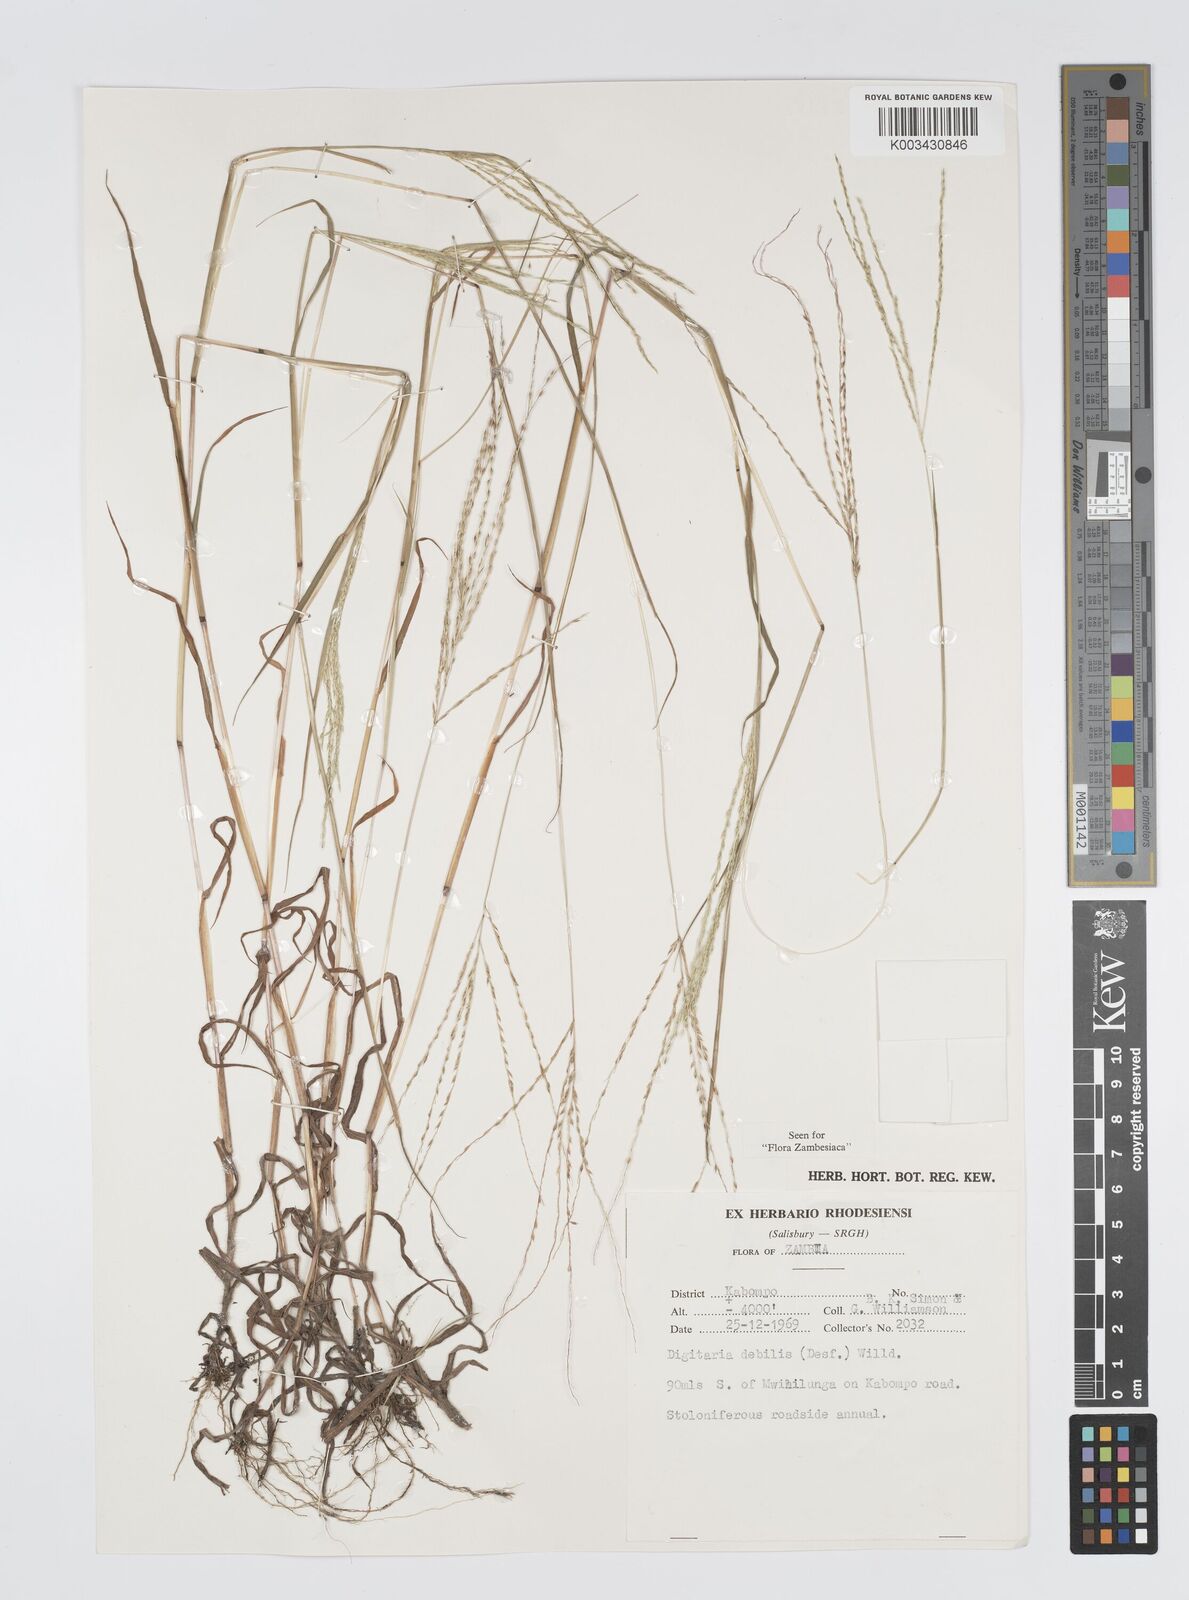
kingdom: Plantae
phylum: Tracheophyta
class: Liliopsida
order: Poales
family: Poaceae
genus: Digitaria
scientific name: Digitaria debilis
